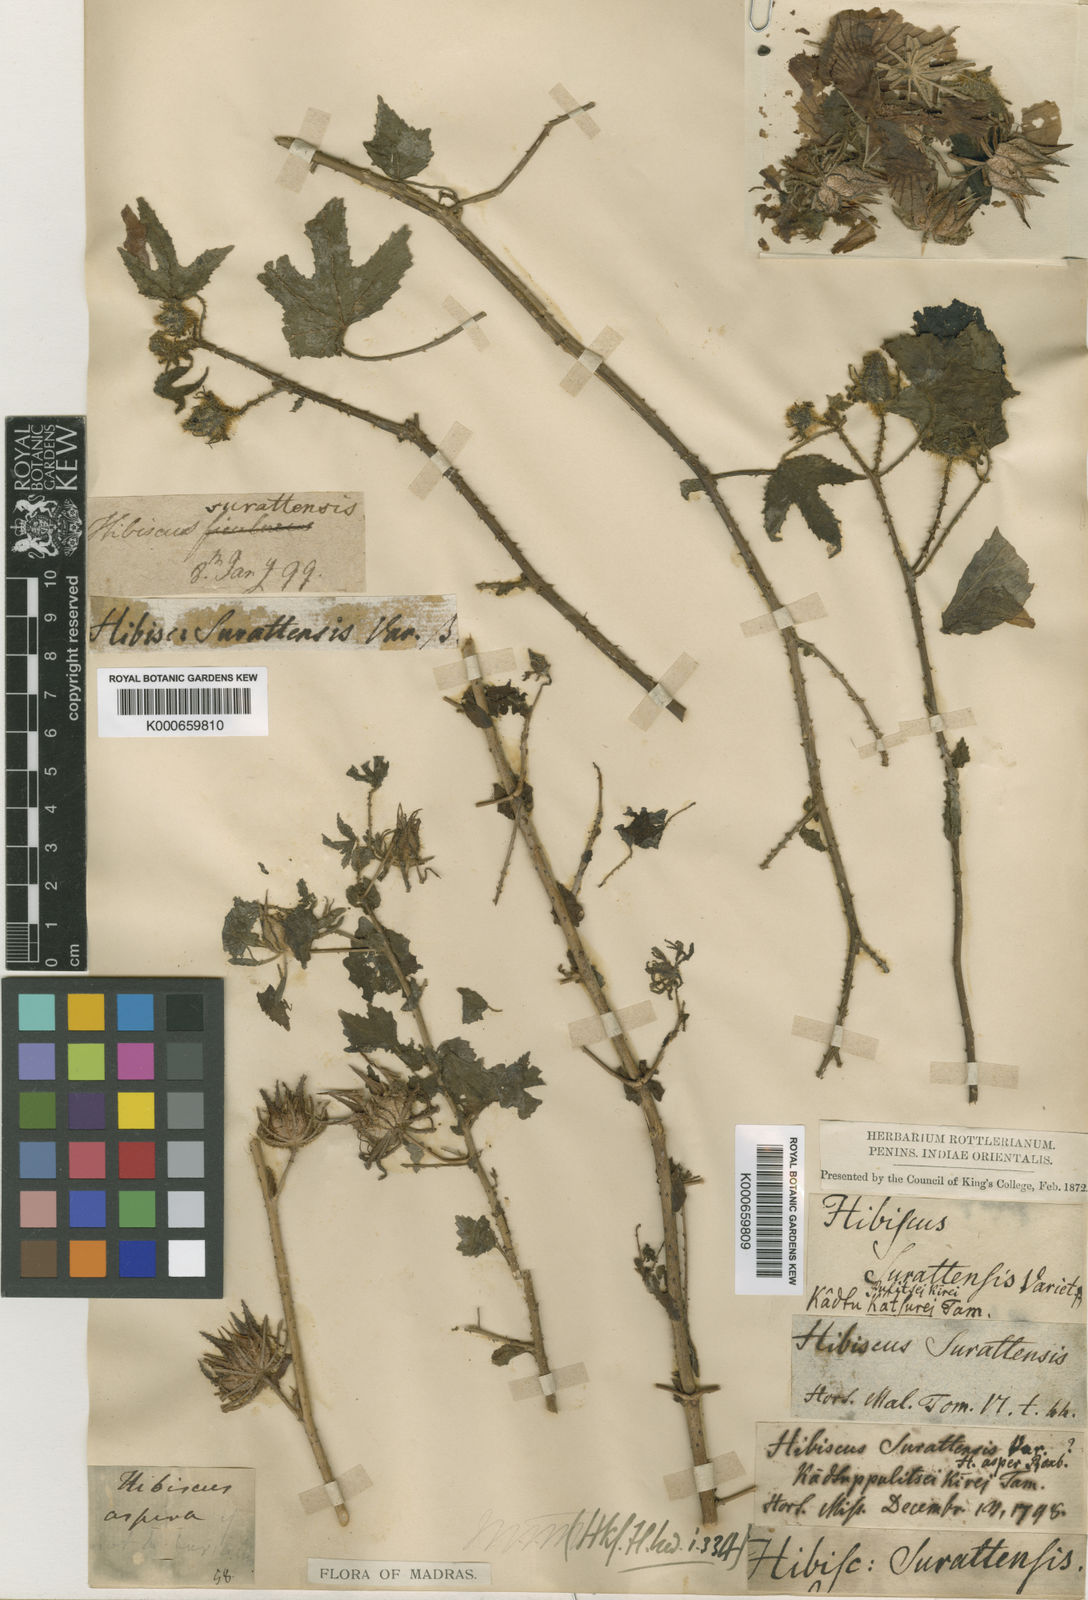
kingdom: Plantae
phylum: Tracheophyta
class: Magnoliopsida
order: Malvales
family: Malvaceae
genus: Hibiscus
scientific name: Hibiscus surattensis
